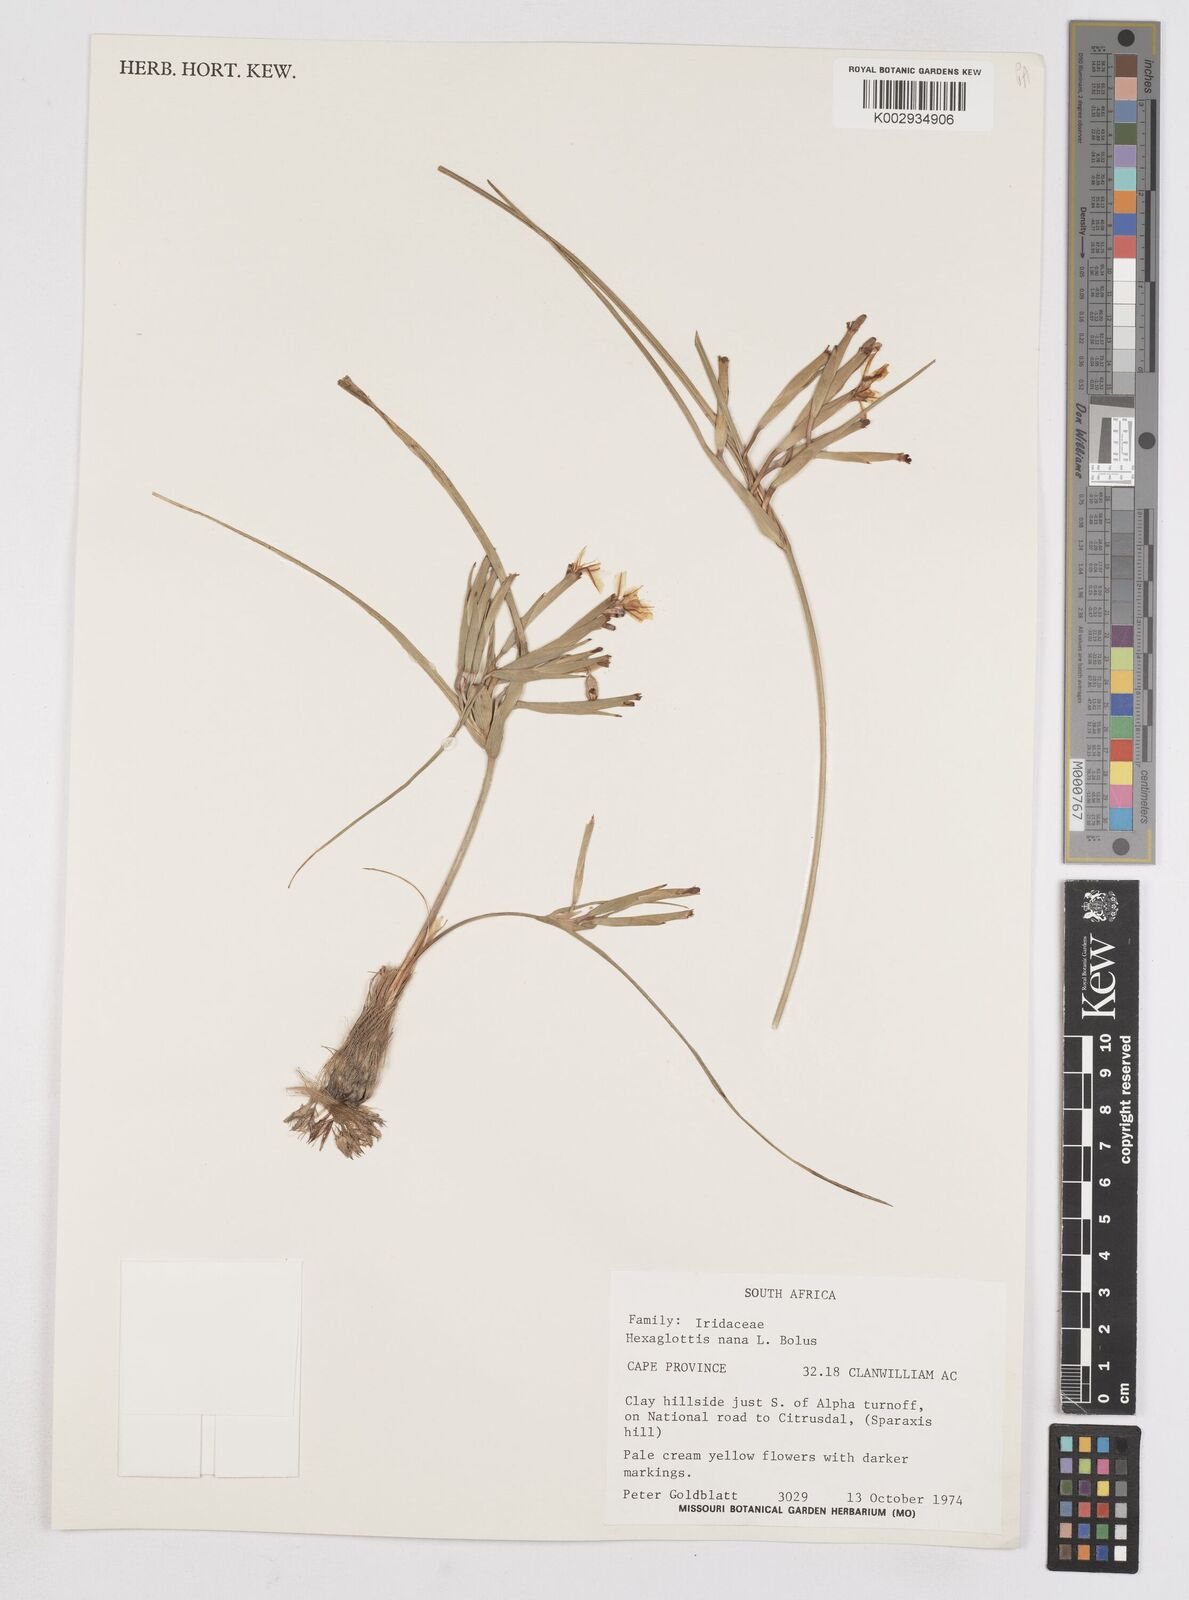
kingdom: Plantae
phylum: Tracheophyta
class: Liliopsida
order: Asparagales
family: Iridaceae
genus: Moraea
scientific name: Moraea nana
